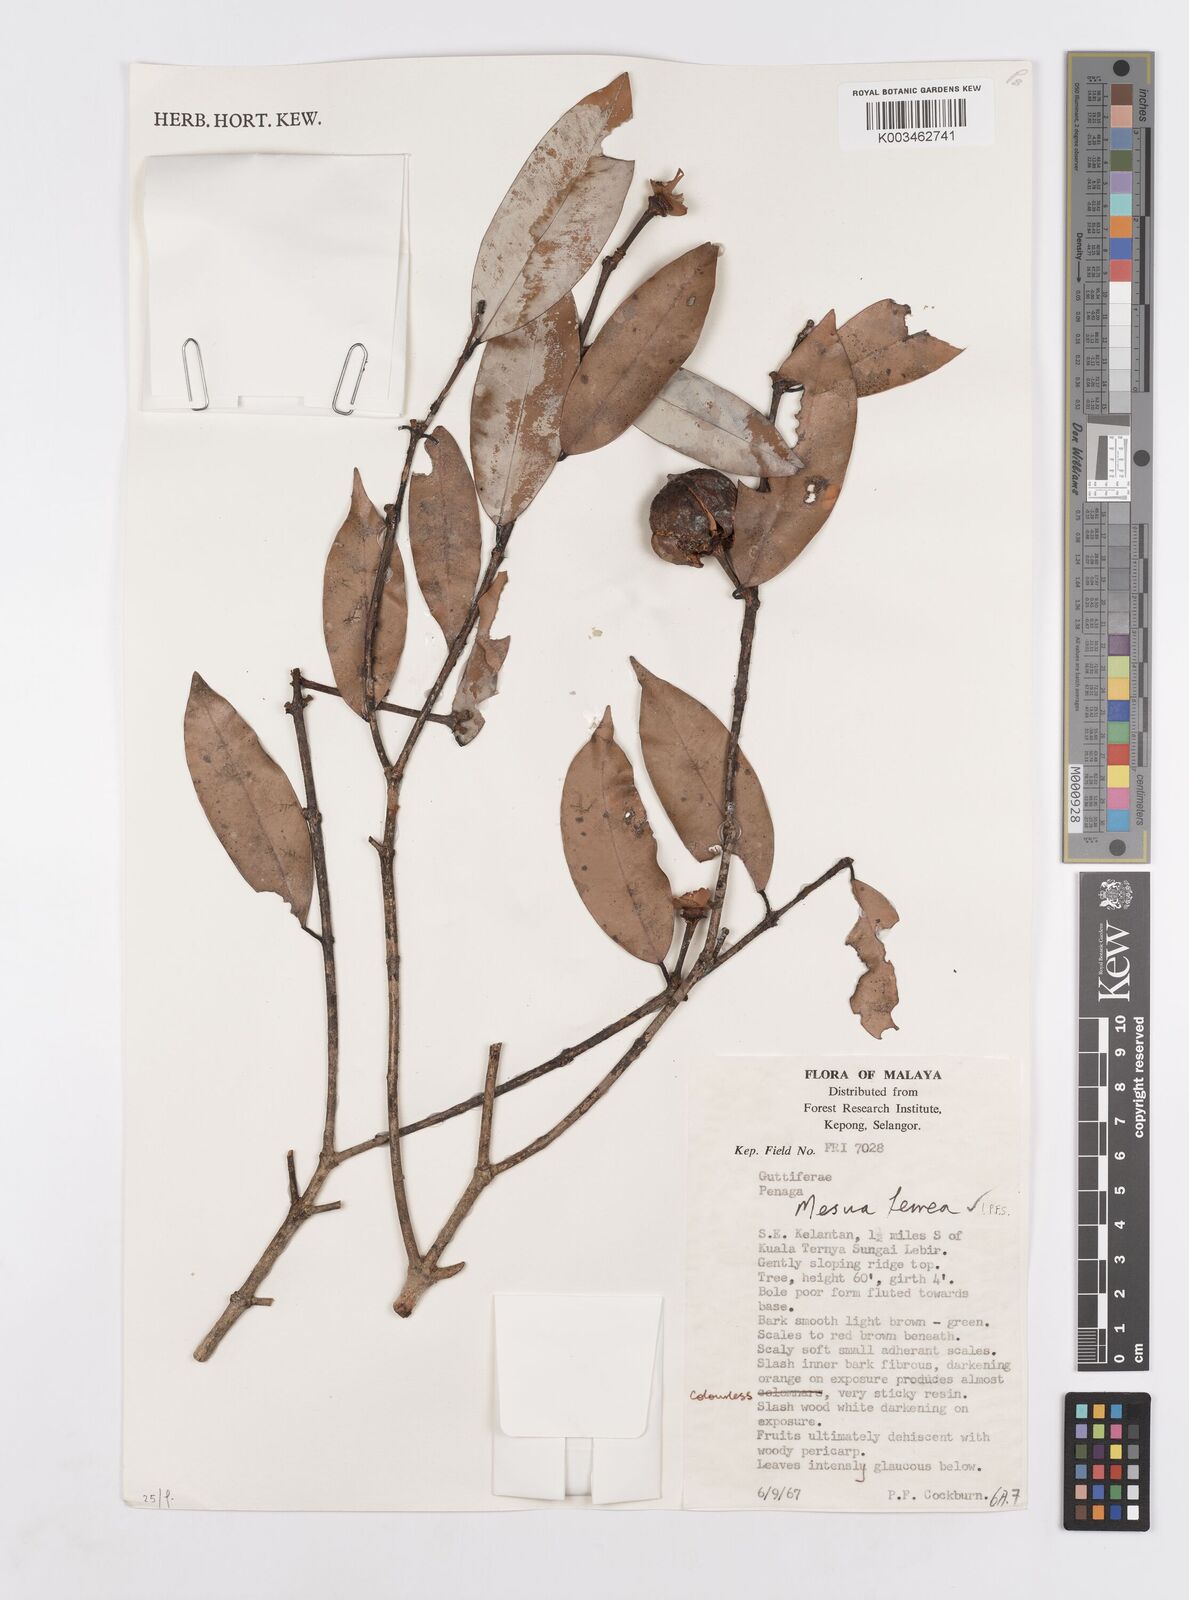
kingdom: Plantae
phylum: Tracheophyta
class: Magnoliopsida
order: Malpighiales
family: Calophyllaceae
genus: Mesua
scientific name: Mesua ferrea
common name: Mesua
